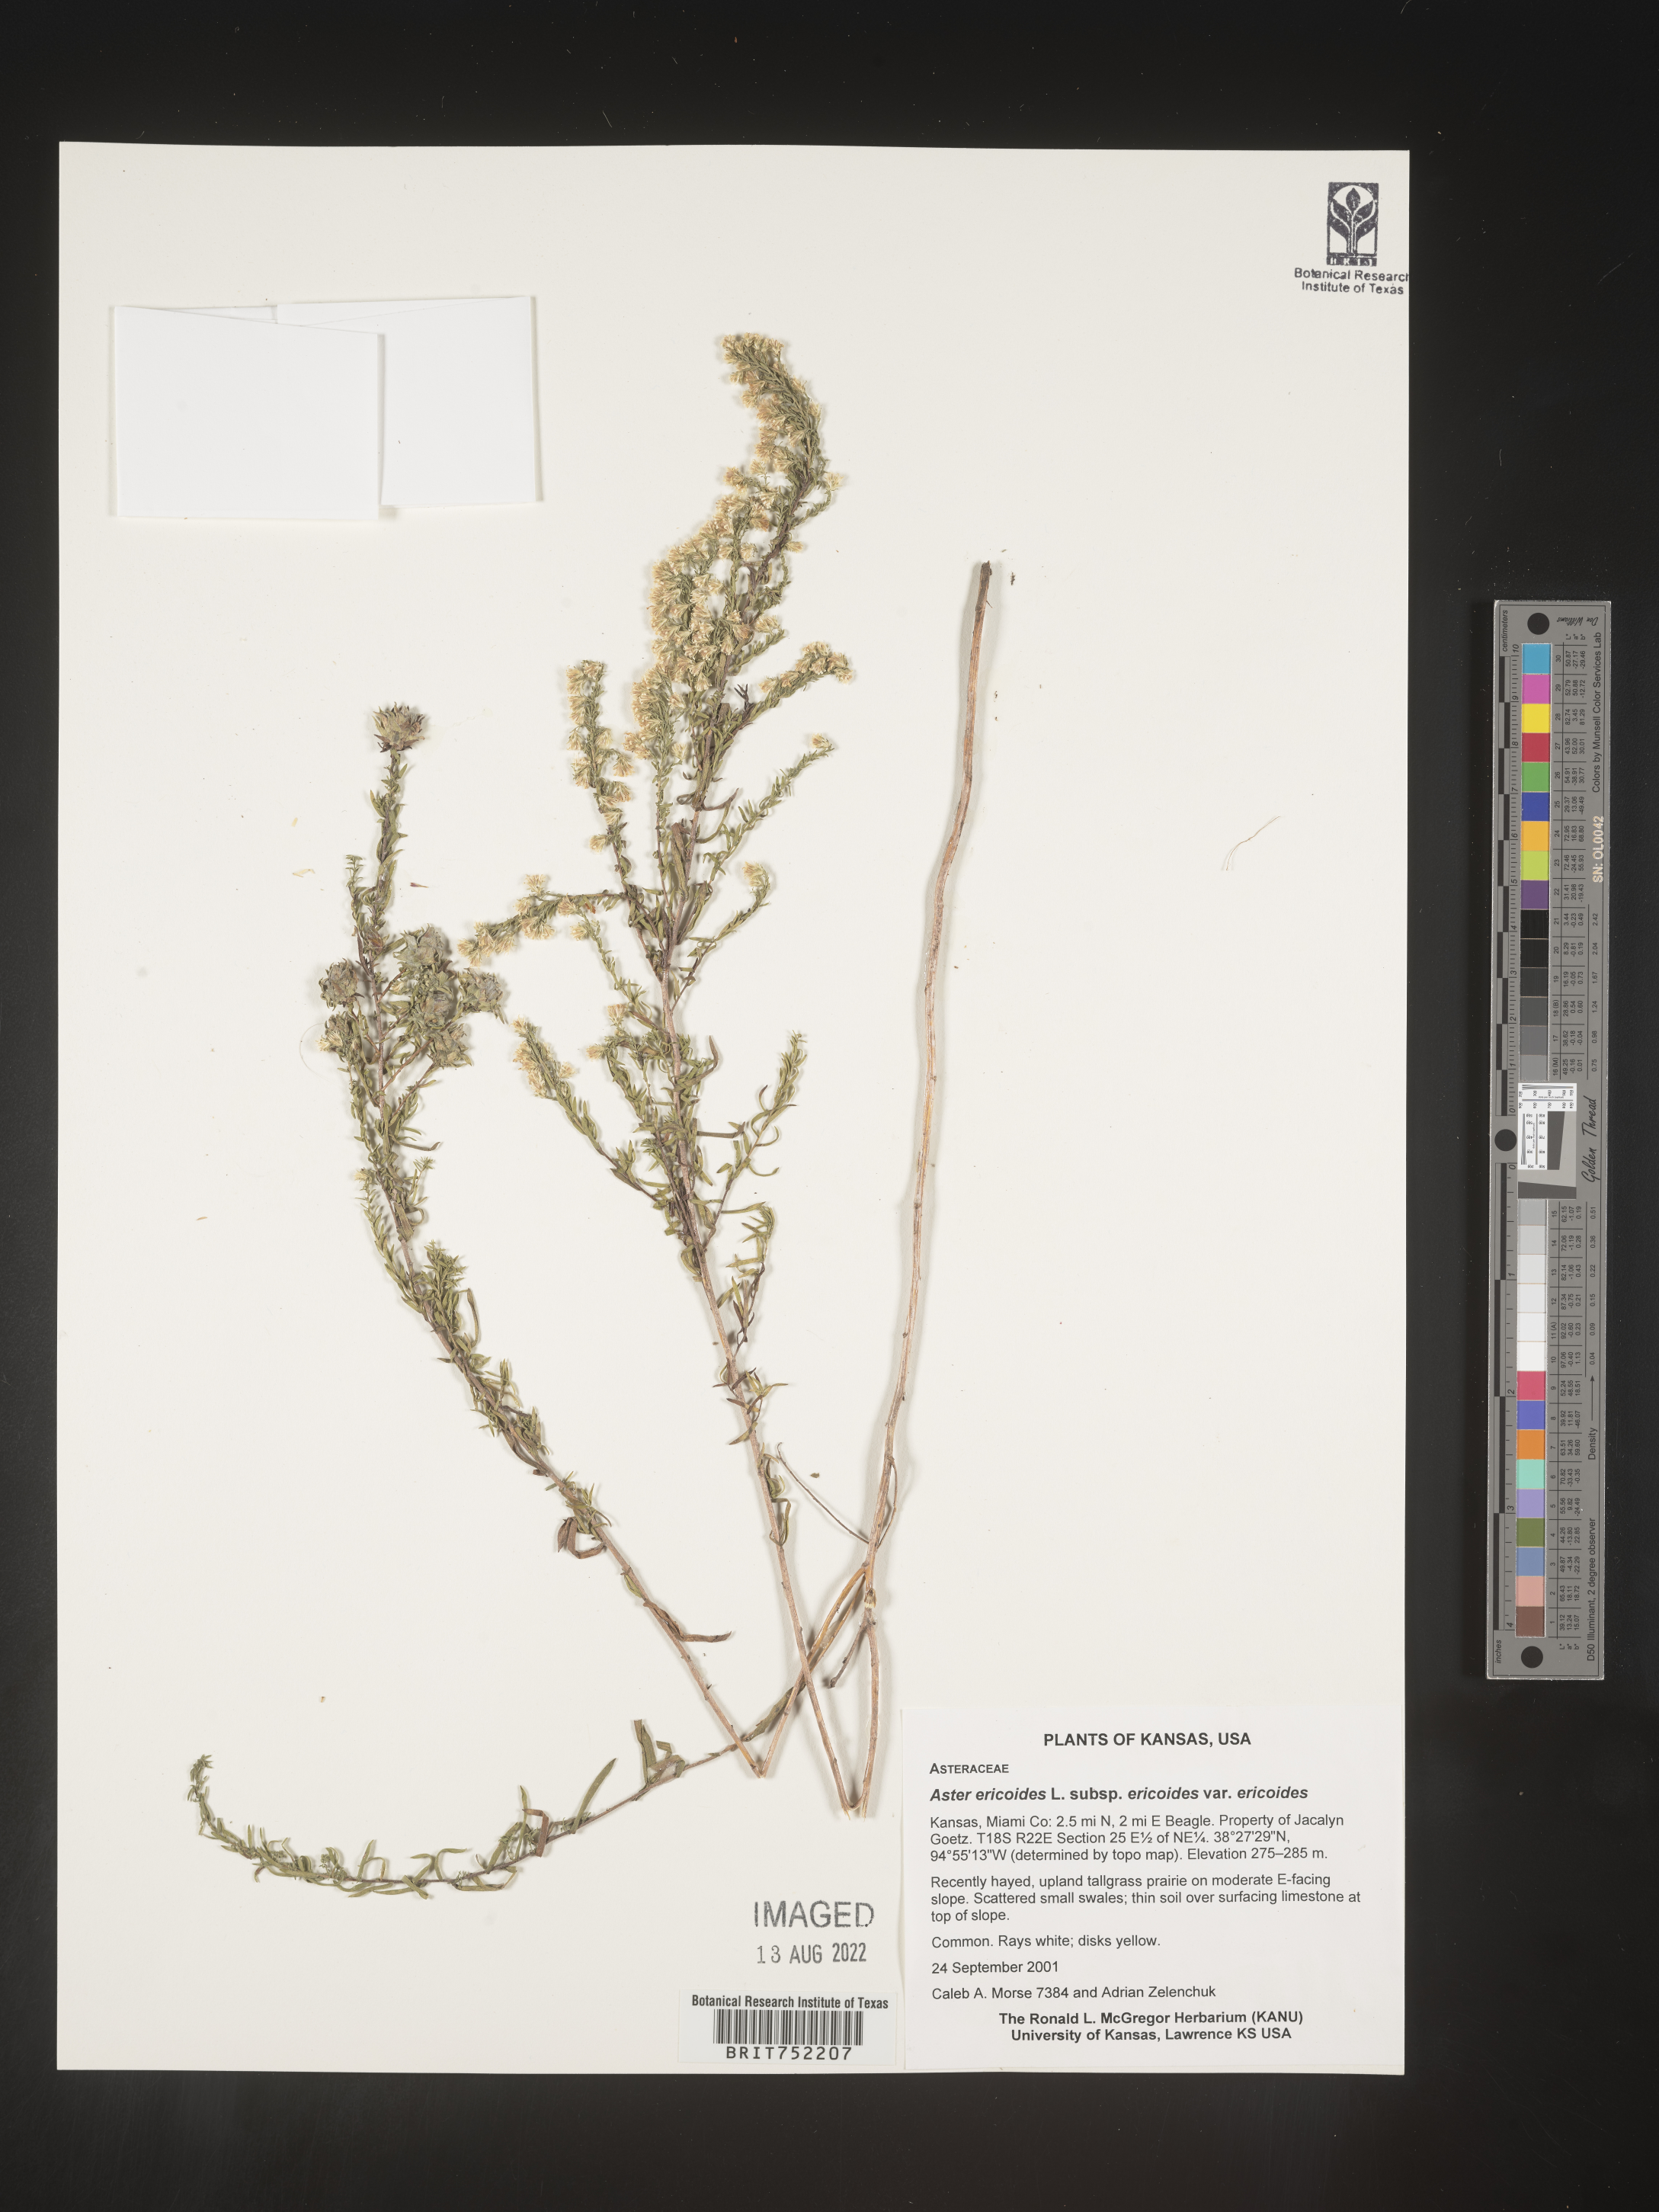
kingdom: Plantae
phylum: Tracheophyta
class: Magnoliopsida
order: Asterales
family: Asteraceae
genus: Symphyotrichum
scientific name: Symphyotrichum ericoides
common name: Heath aster
